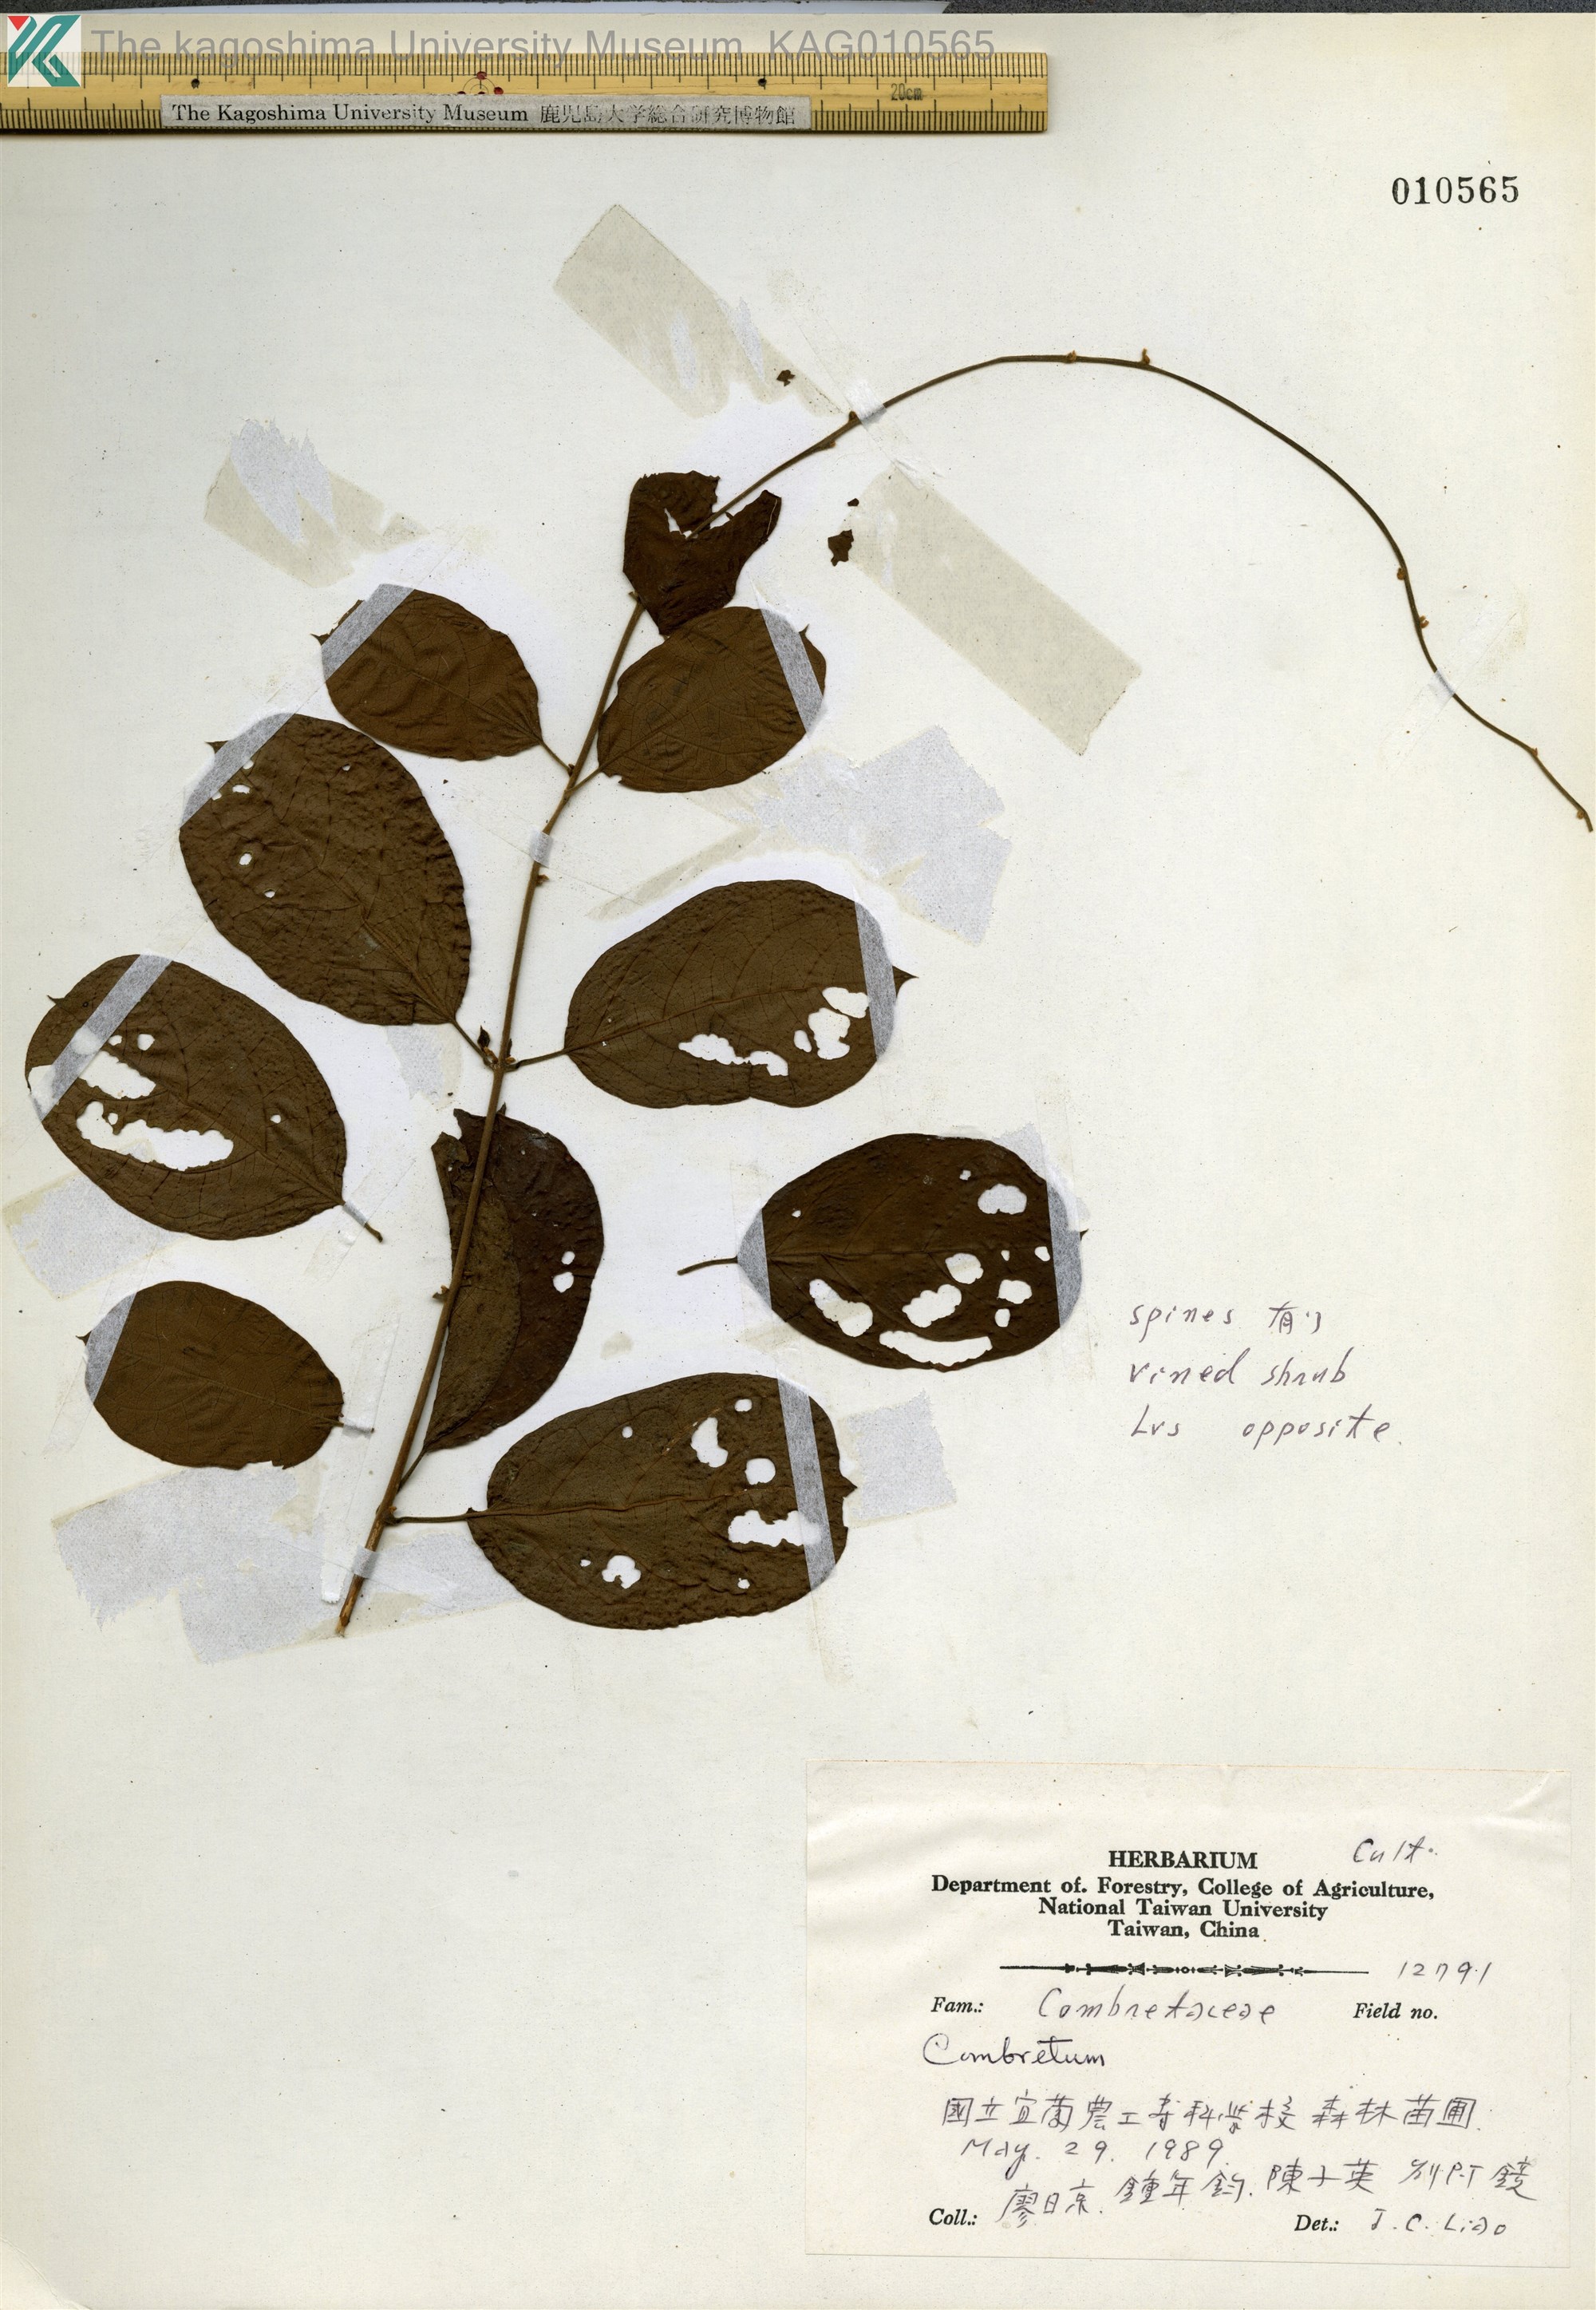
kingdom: Plantae
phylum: Tracheophyta
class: Magnoliopsida
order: Myrtales
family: Combretaceae
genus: Combretum
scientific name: Combretum
